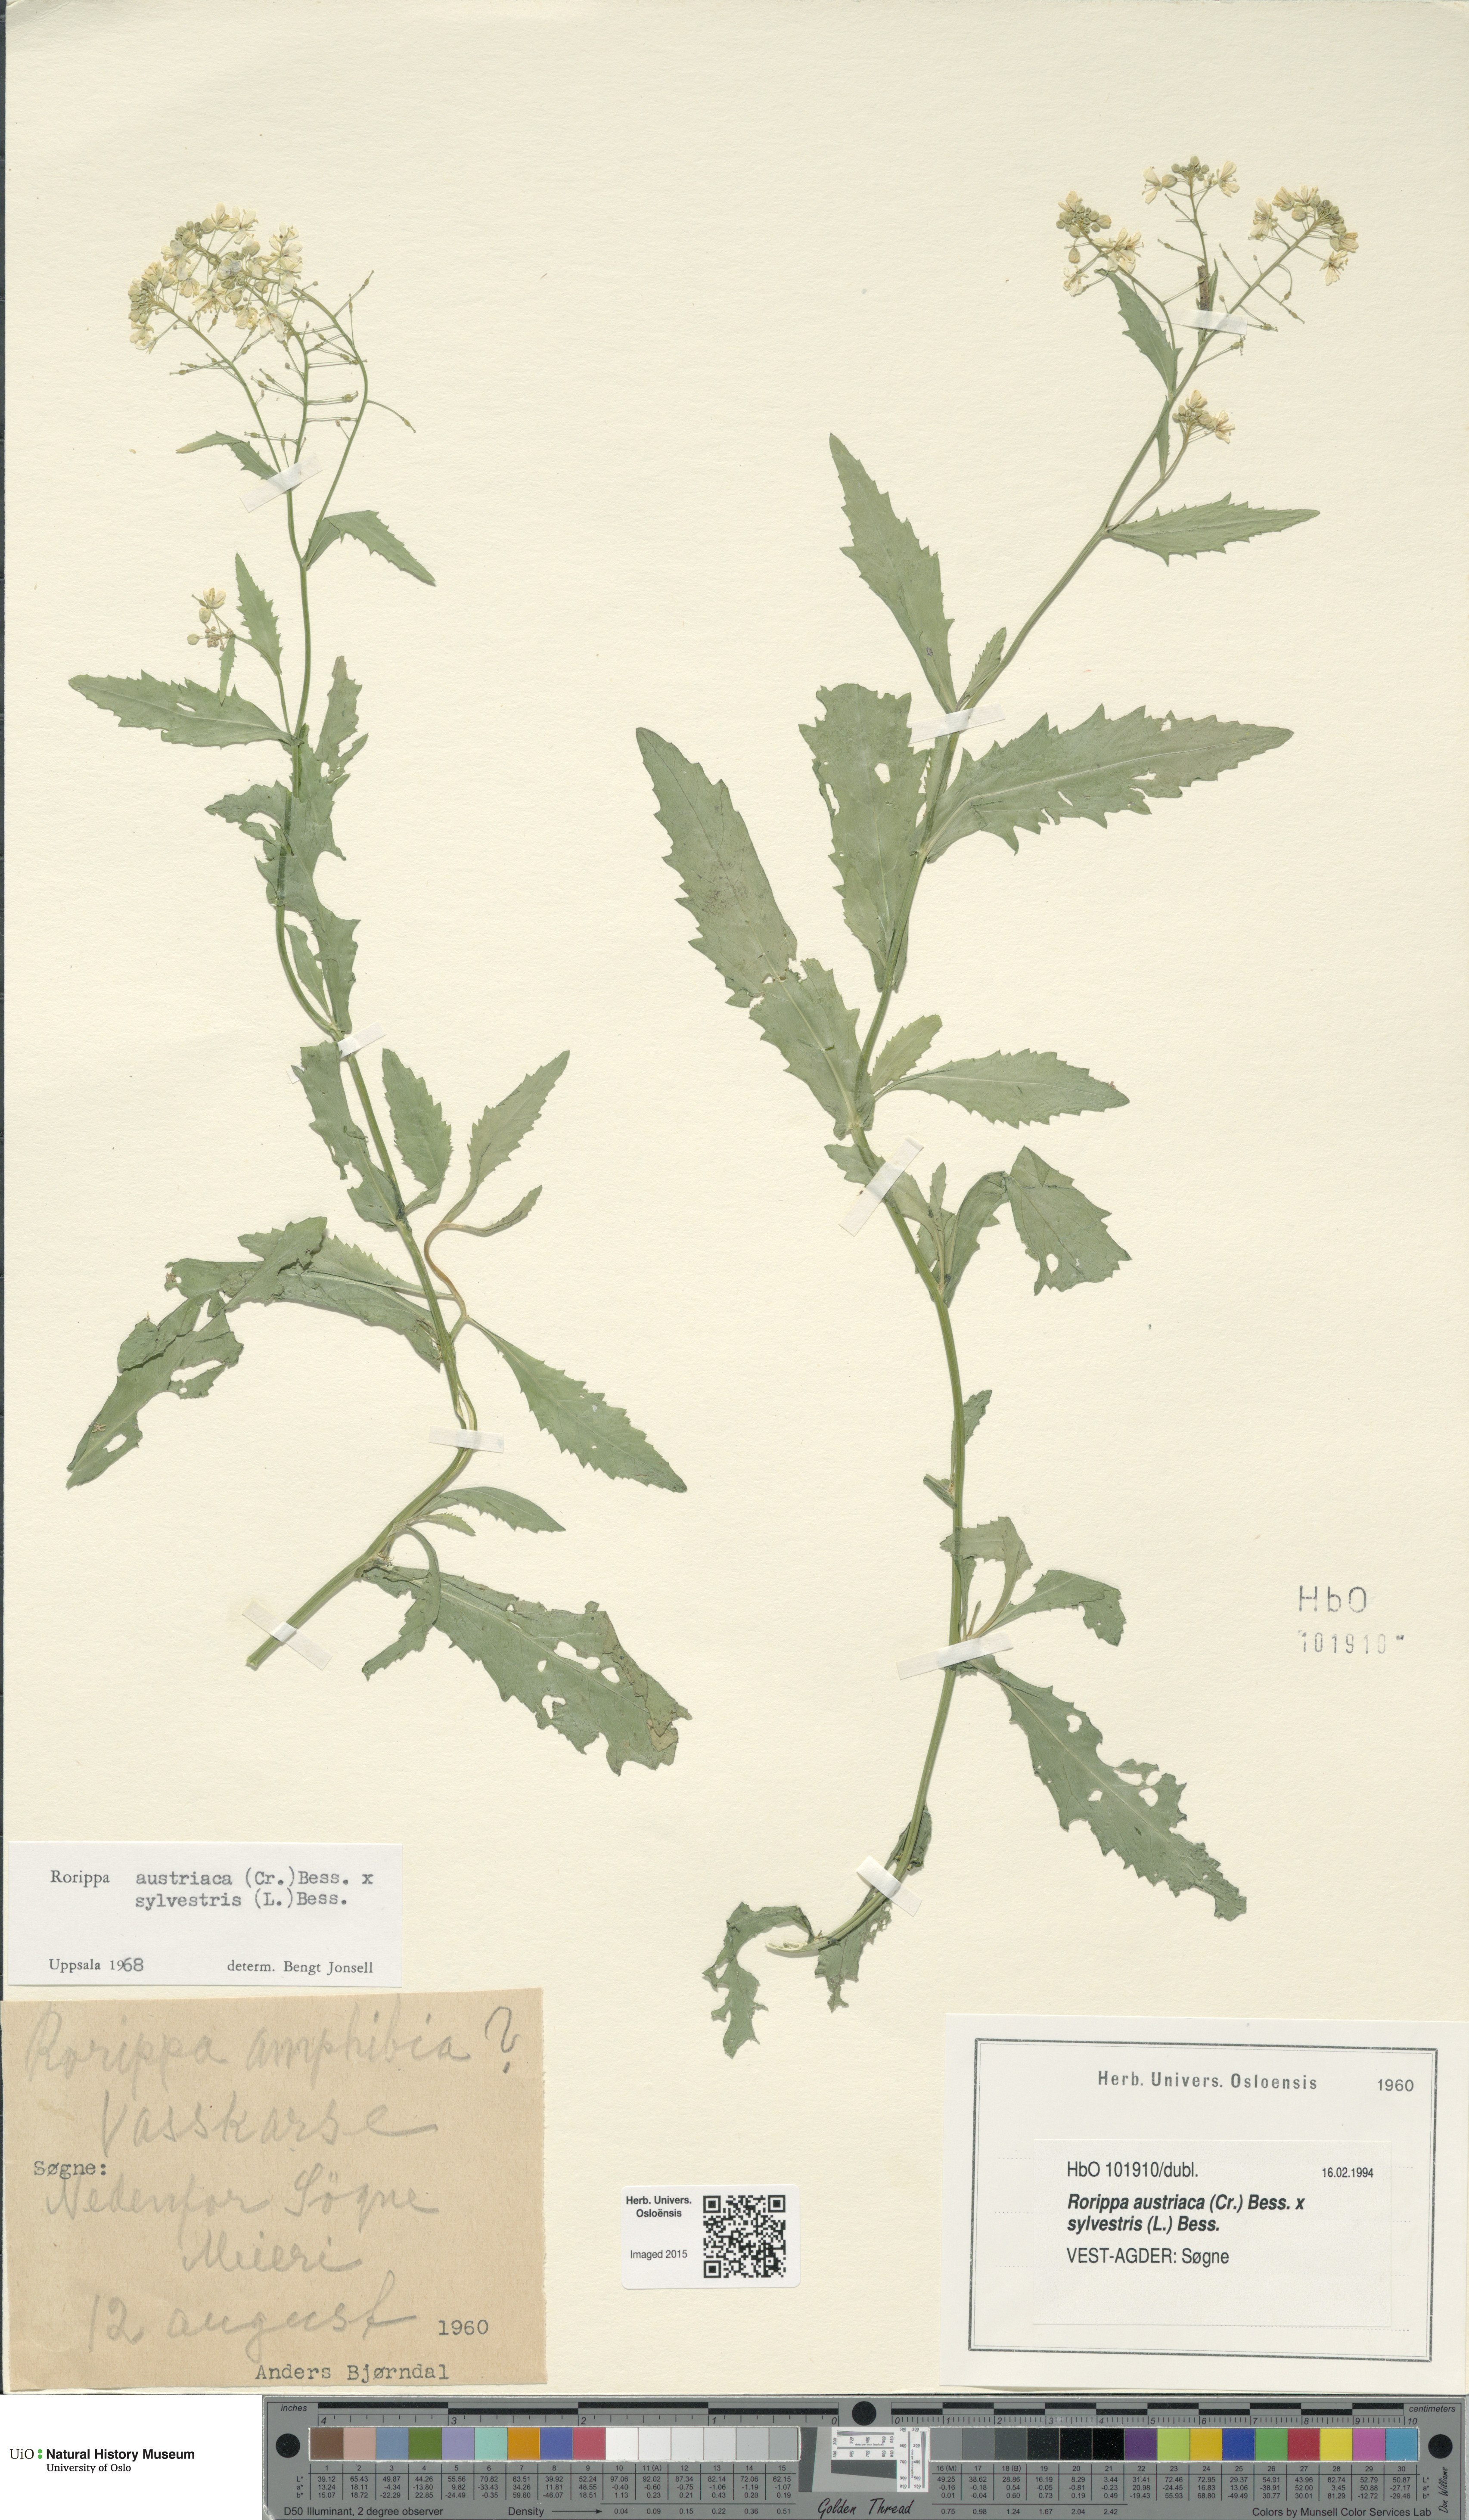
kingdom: Plantae
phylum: Tracheophyta
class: Magnoliopsida
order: Brassicales
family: Brassicaceae
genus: Rorippa
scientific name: Rorippa
